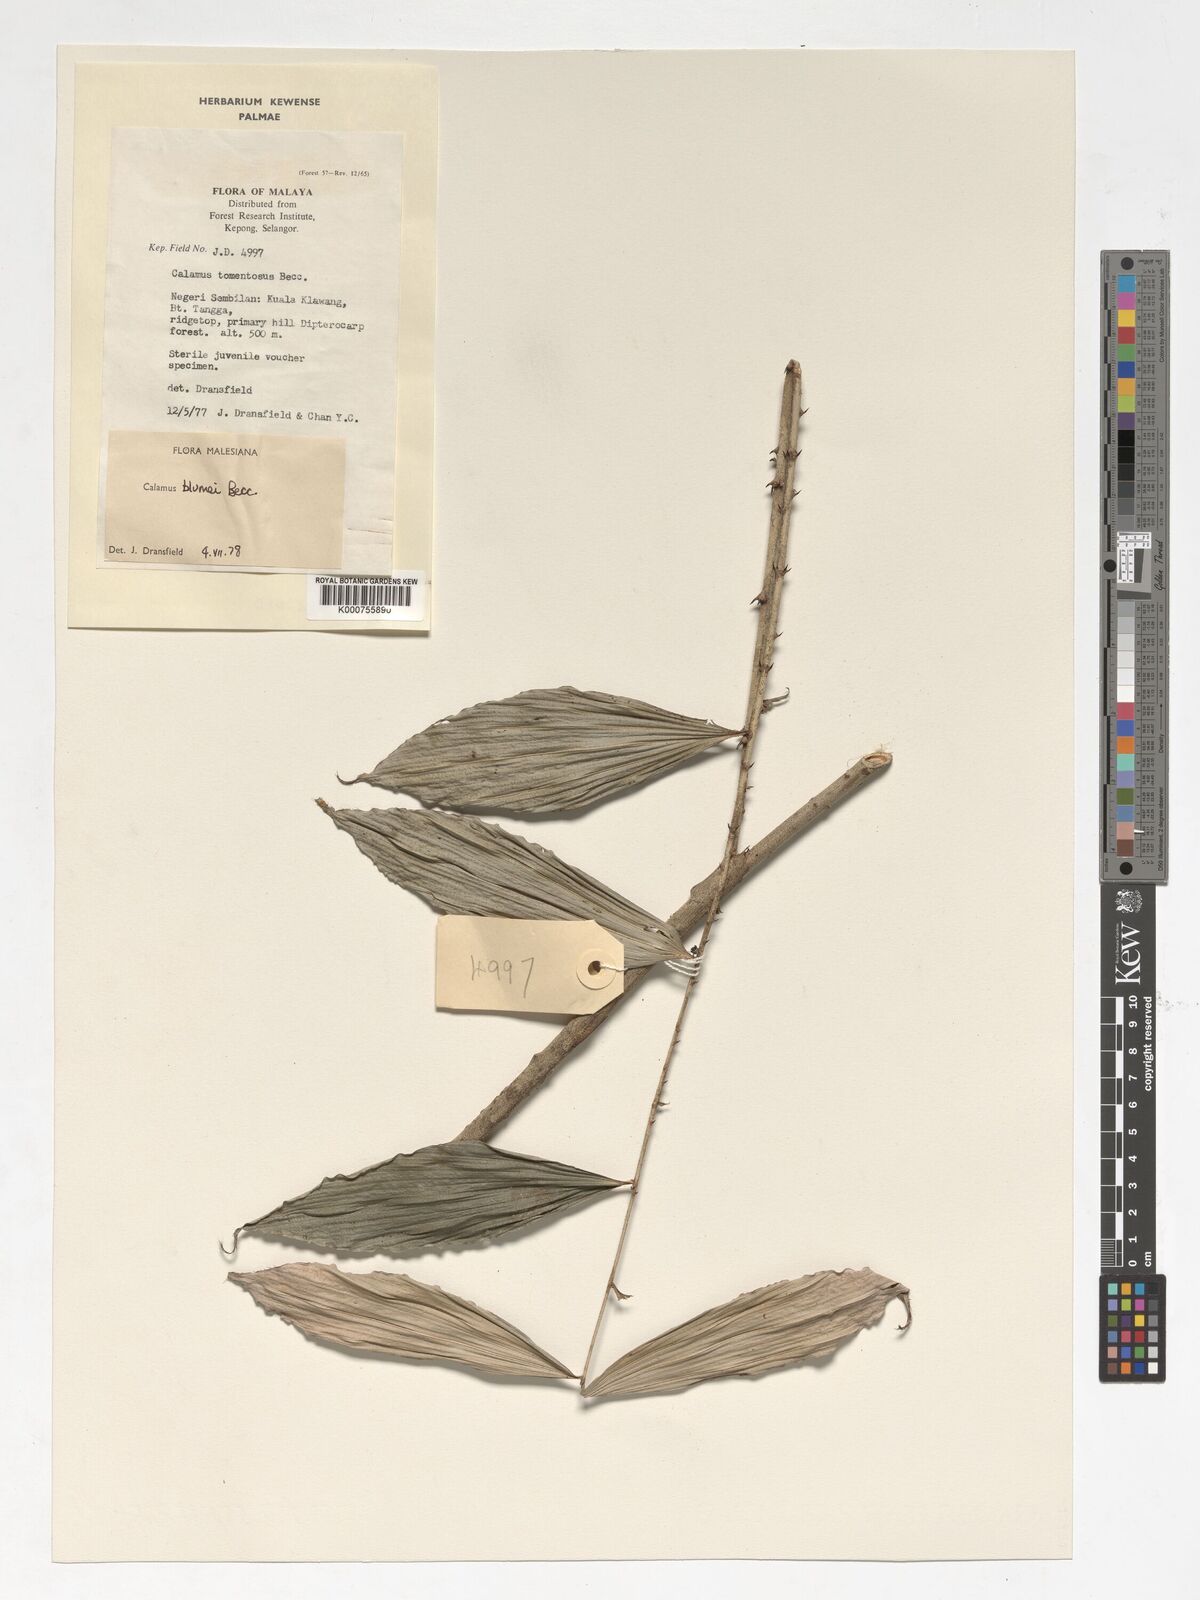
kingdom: Plantae
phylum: Tracheophyta
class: Liliopsida
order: Arecales
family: Arecaceae
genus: Calamus
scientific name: Calamus rhomboideus
